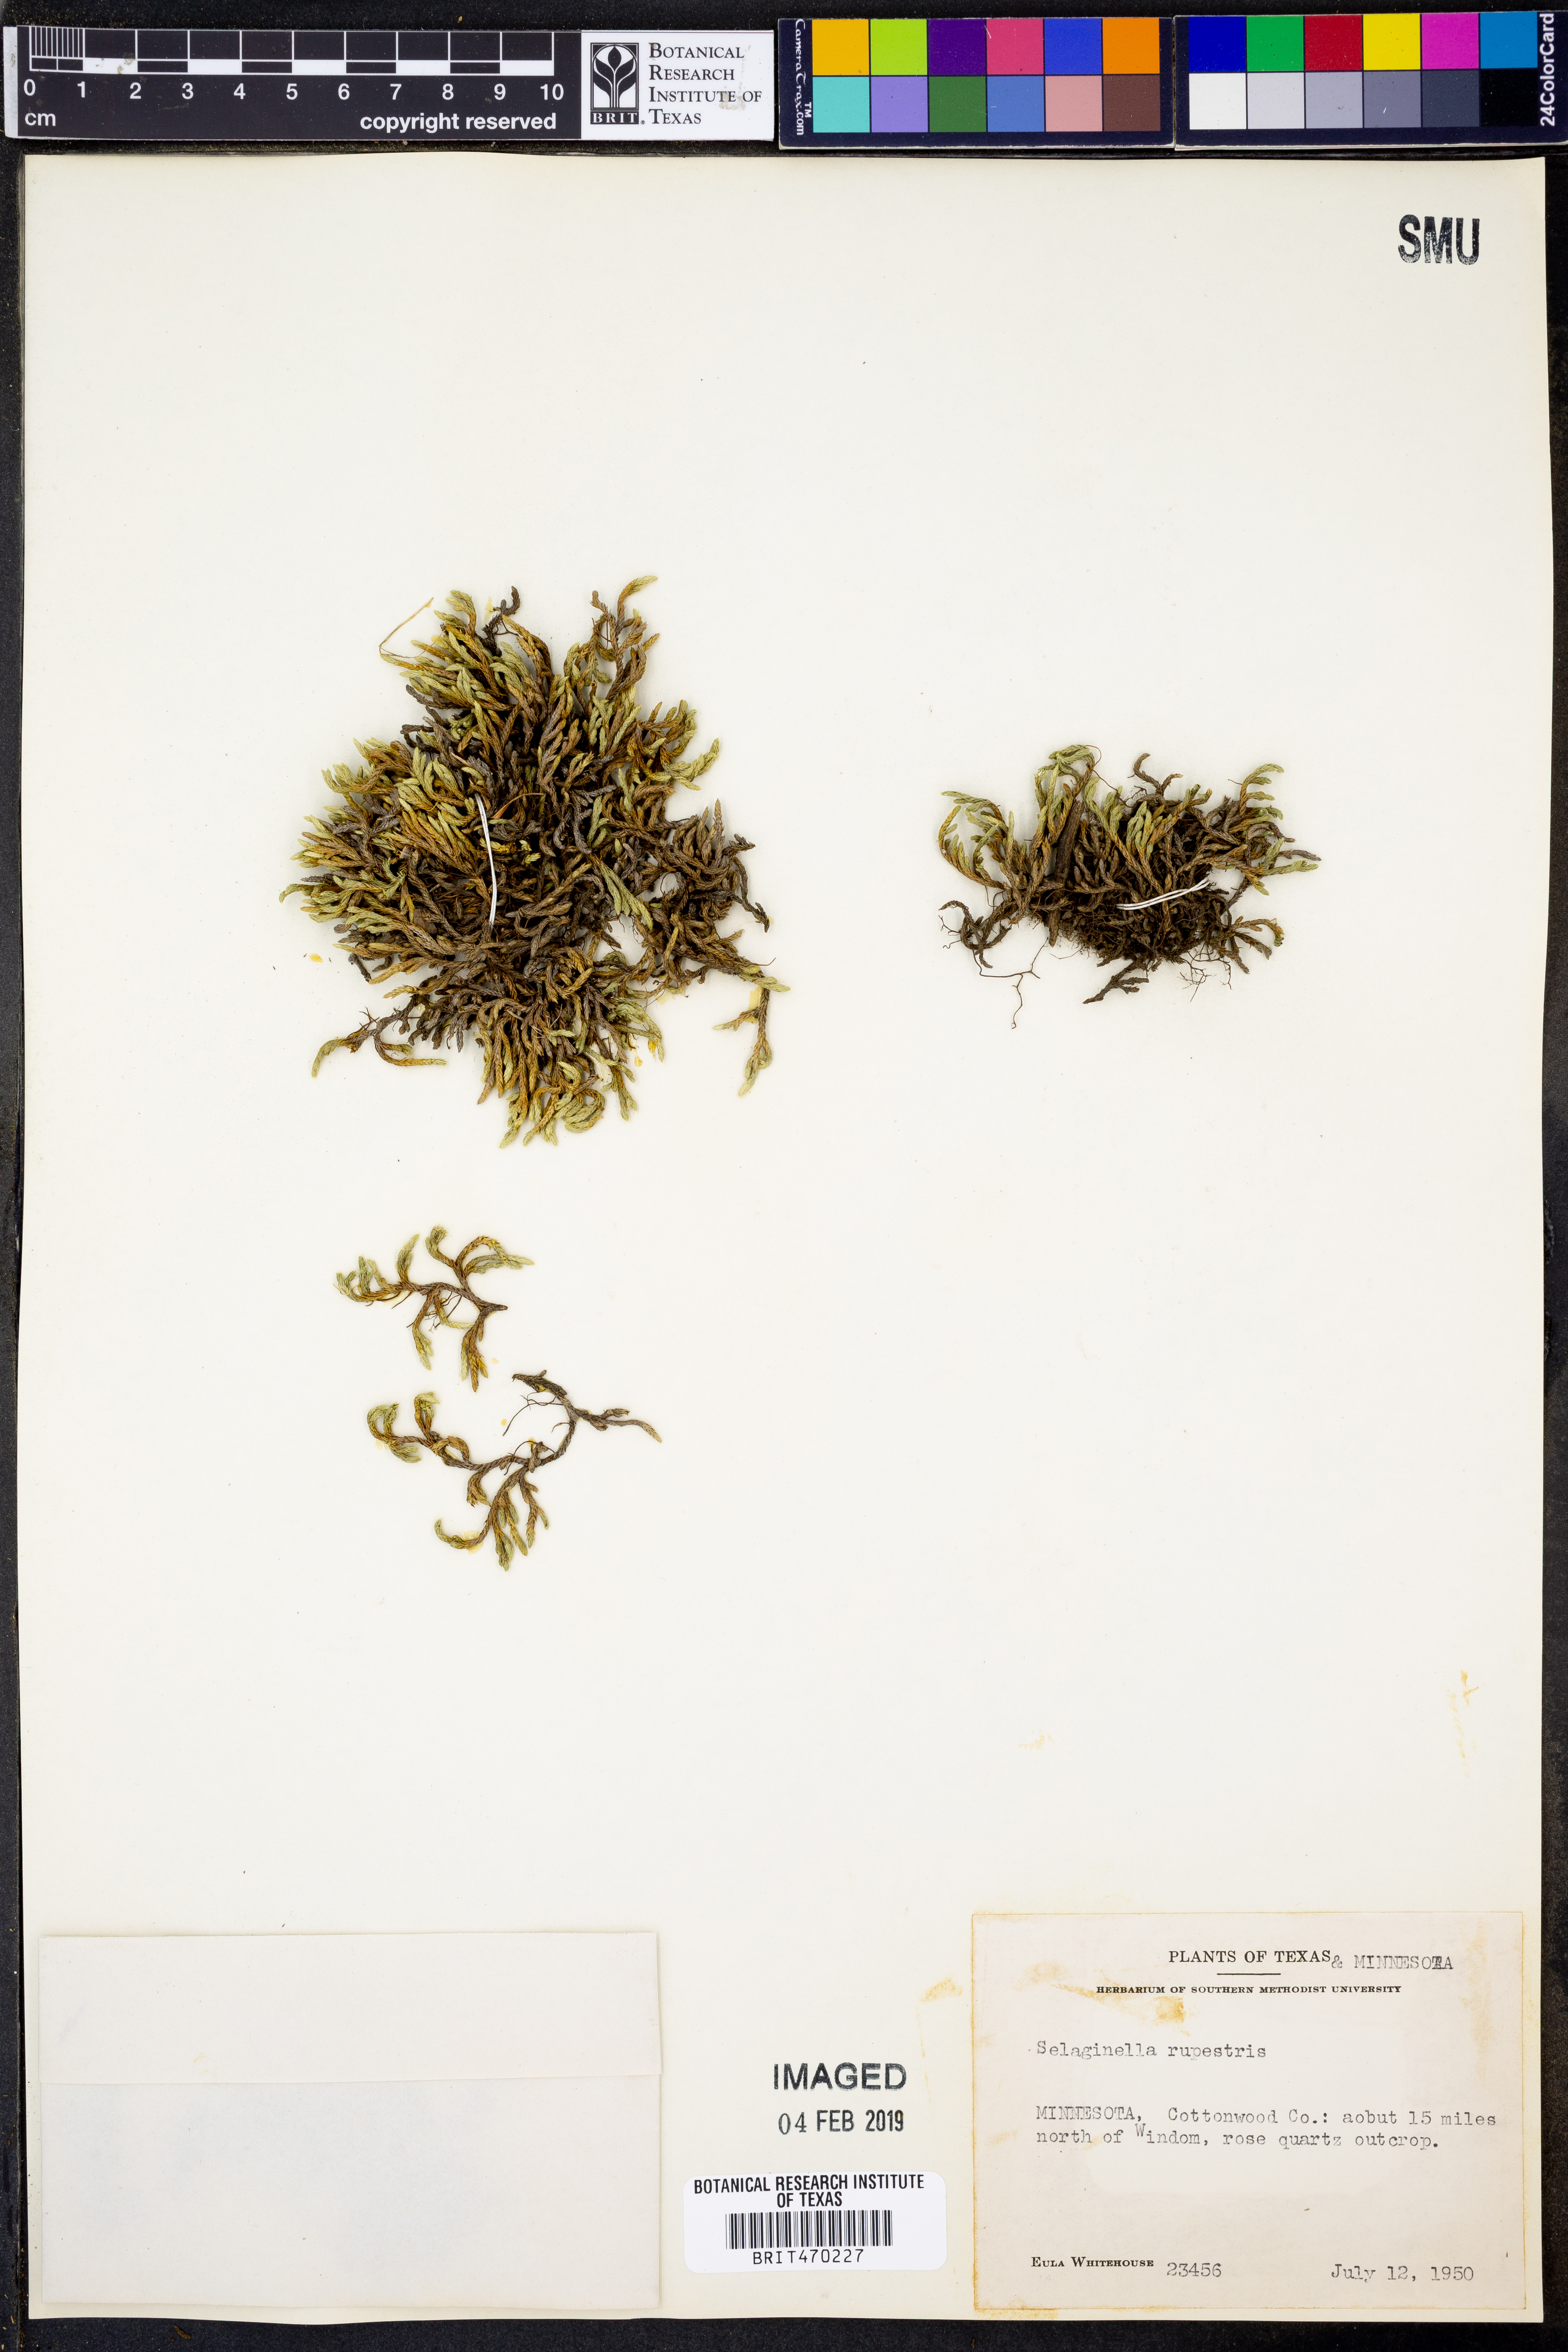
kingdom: Plantae
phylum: Tracheophyta
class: Lycopodiopsida
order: Selaginellales
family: Selaginellaceae
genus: Selaginella
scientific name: Selaginella rupestris
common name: Dwarf spikemoss
